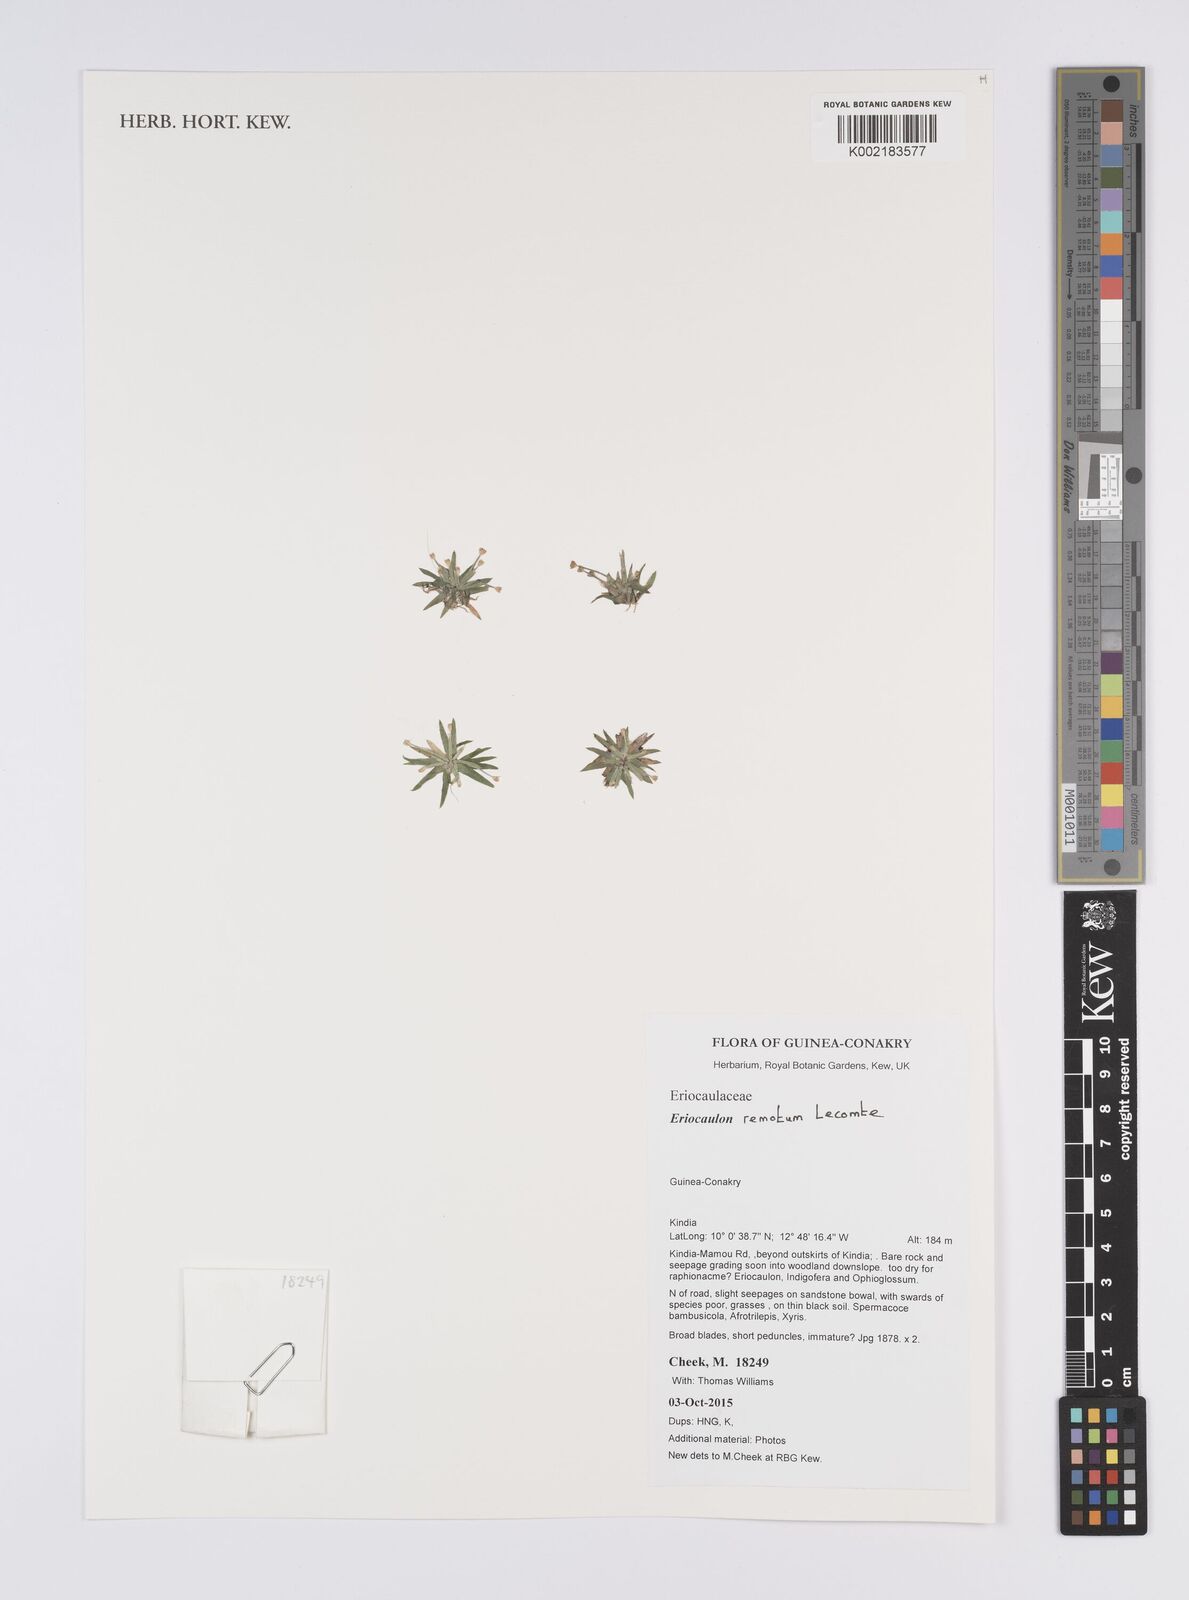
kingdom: Plantae
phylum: Tracheophyta
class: Liliopsida
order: Poales
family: Eriocaulaceae
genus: Eriocaulon
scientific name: Eriocaulon remotum
